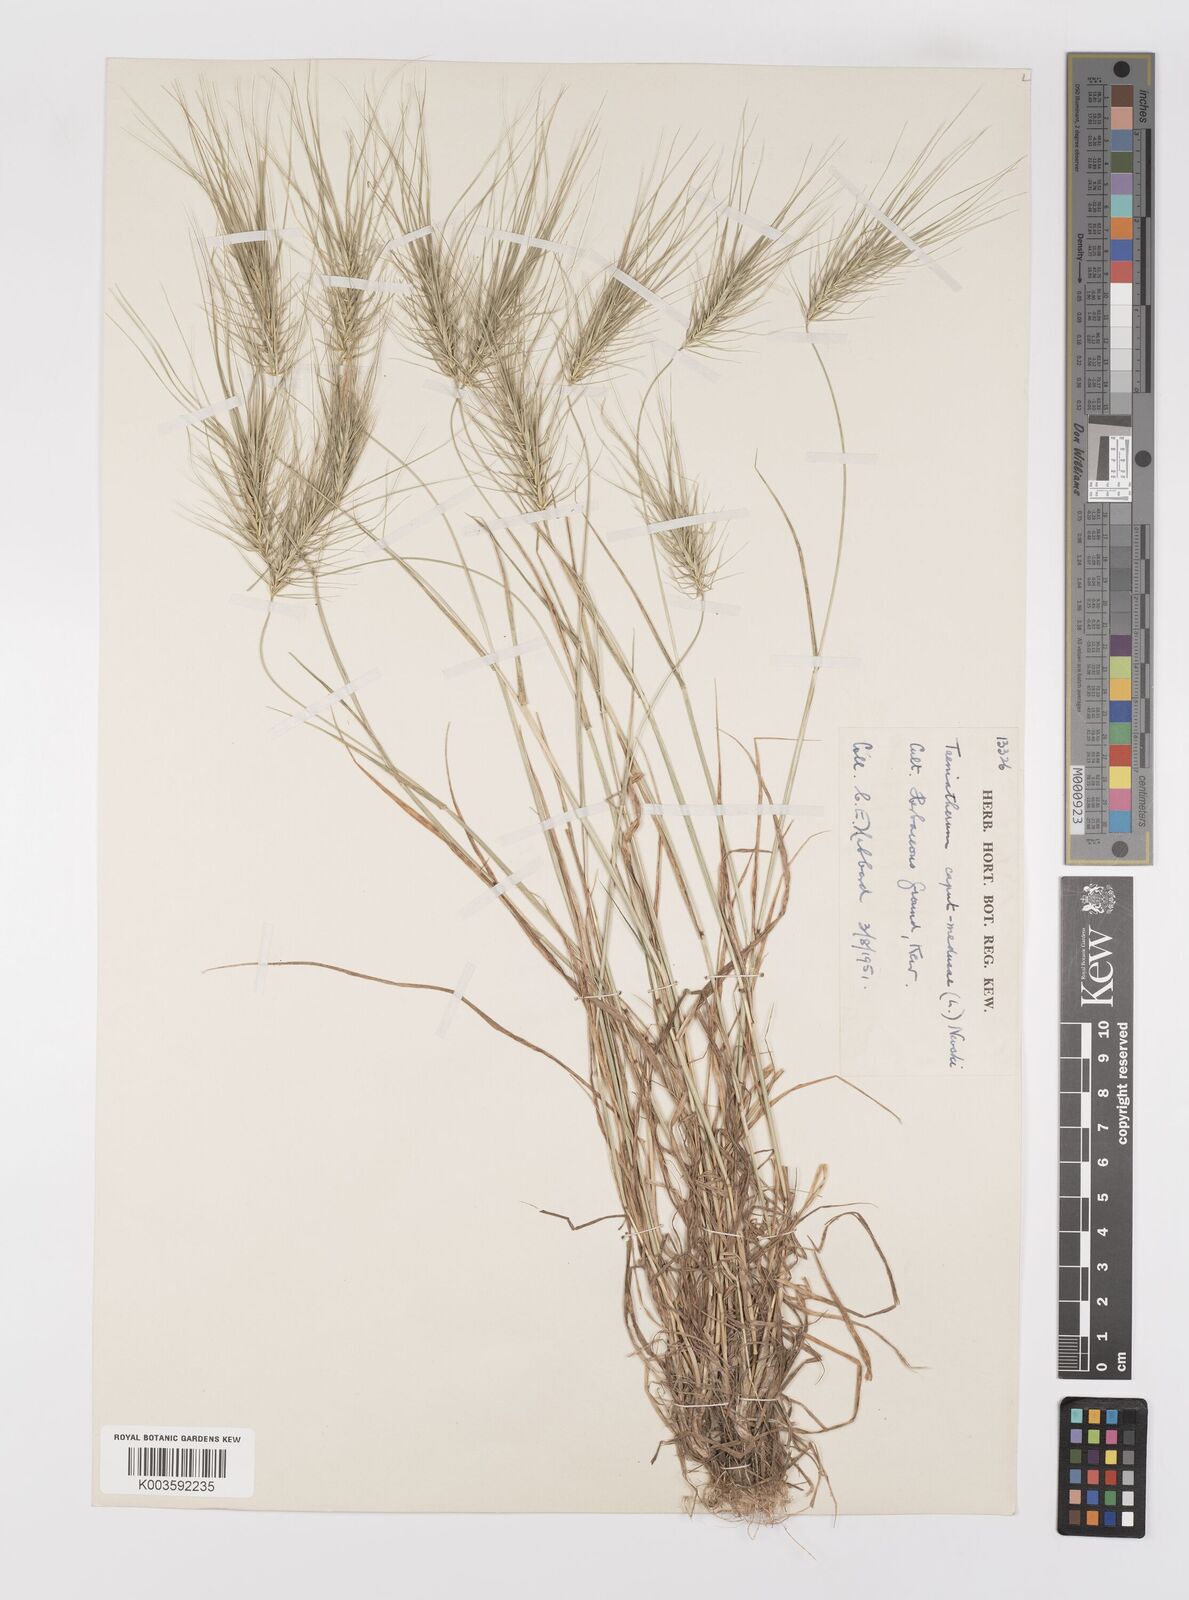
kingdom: Plantae
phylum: Tracheophyta
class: Liliopsida
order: Poales
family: Poaceae
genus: Taeniatherum
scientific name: Taeniatherum caput-medusae
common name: Medusahead
